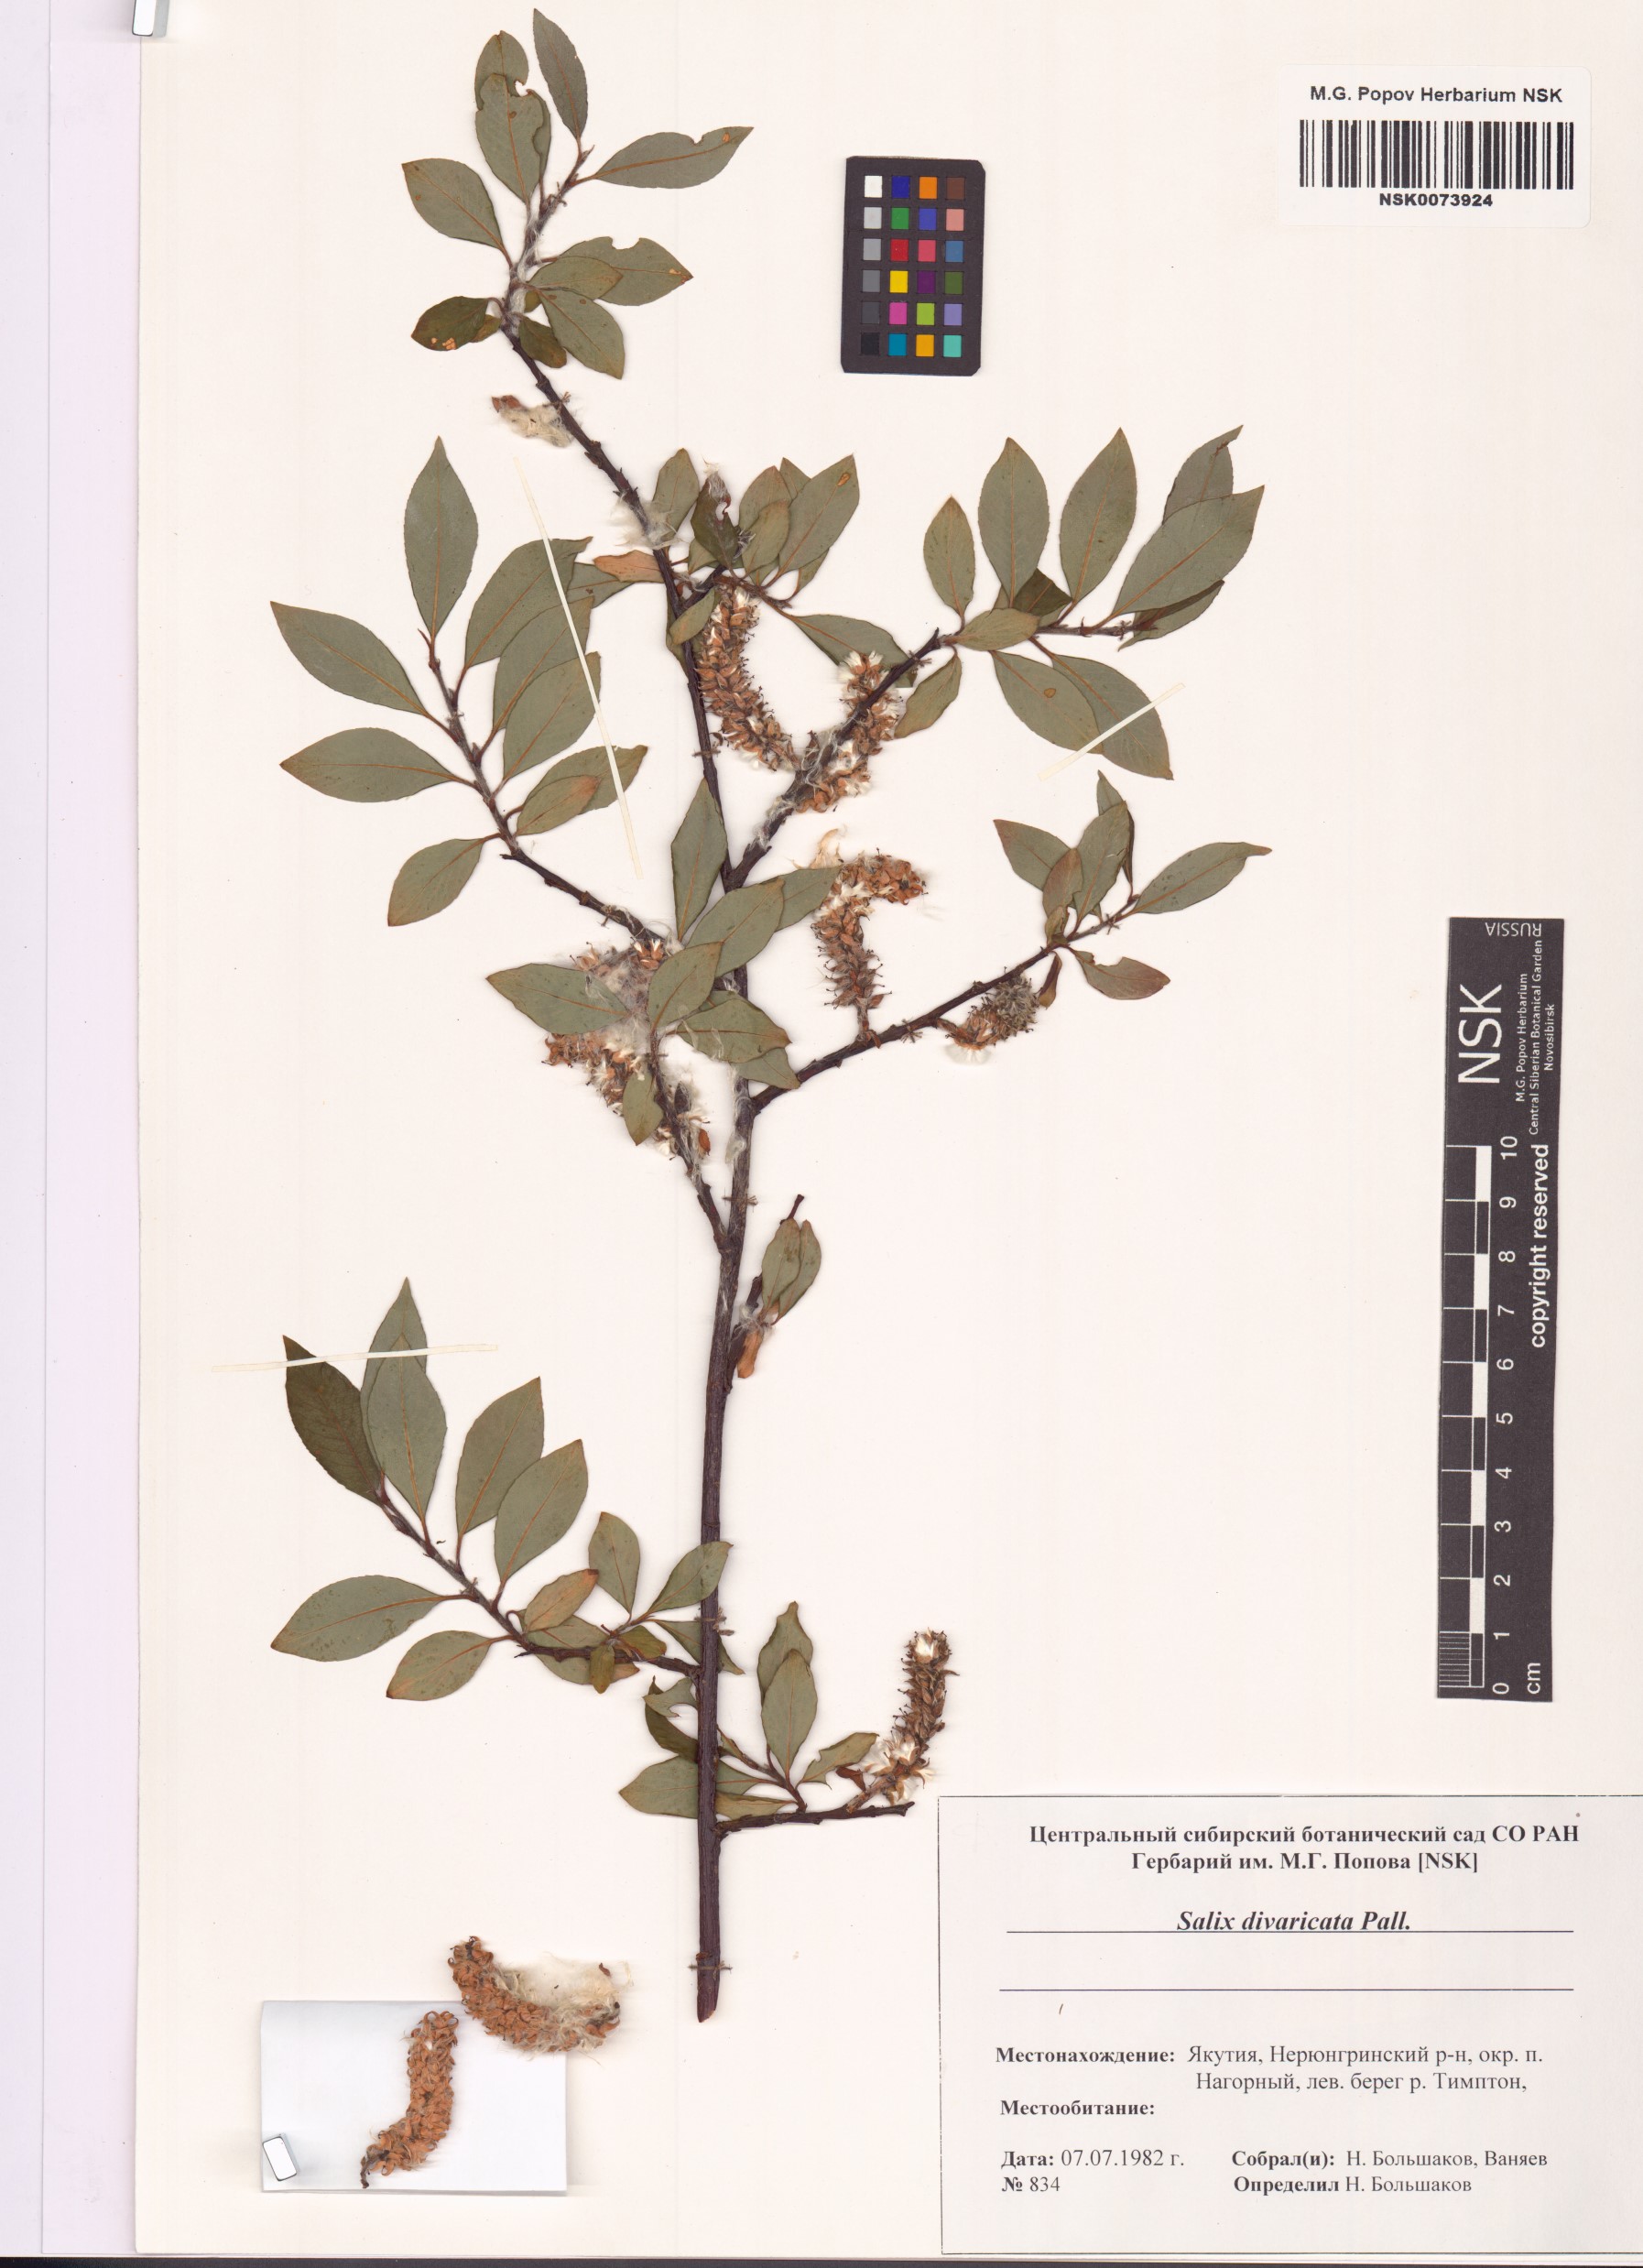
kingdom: Plantae
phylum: Tracheophyta
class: Magnoliopsida
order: Malpighiales
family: Salicaceae
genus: Salix
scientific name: Salix divaricata
